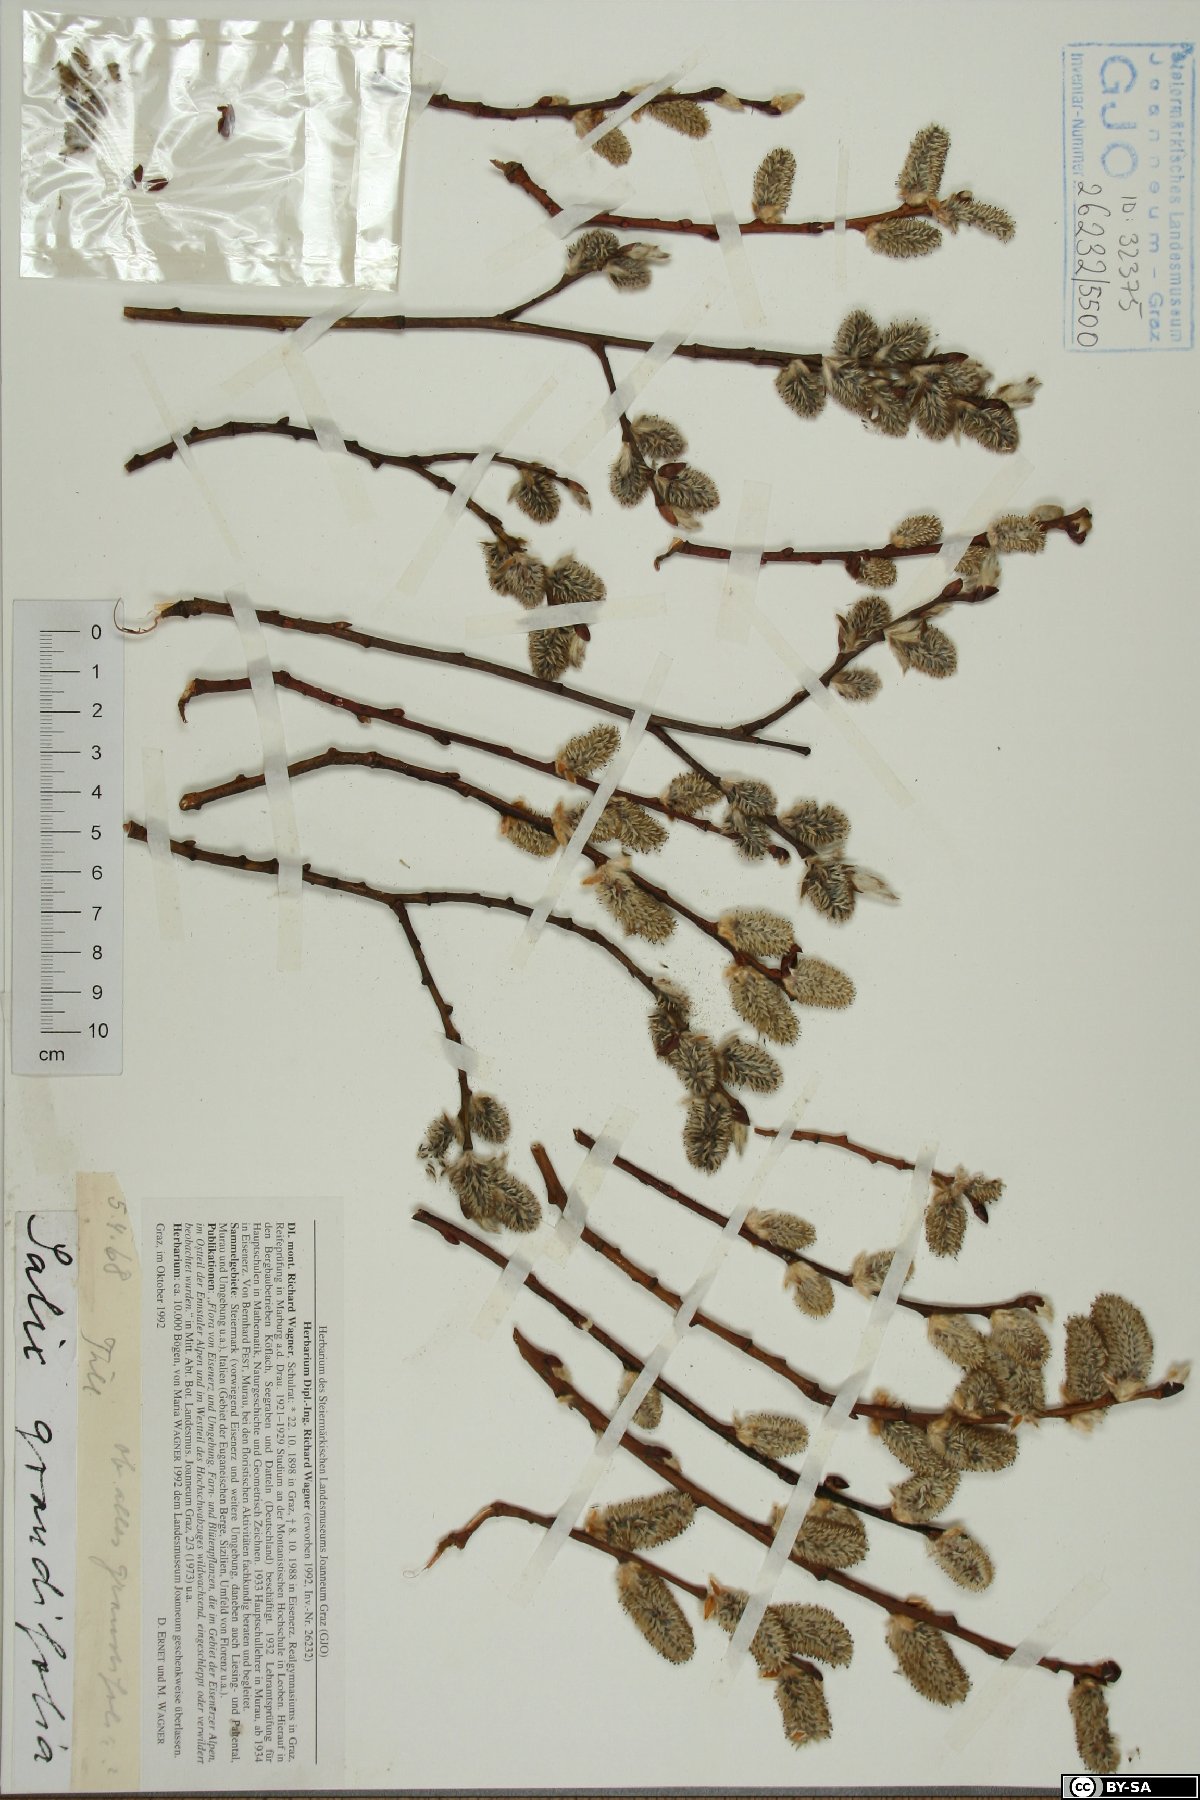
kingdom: Plantae
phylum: Tracheophyta
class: Magnoliopsida
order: Malpighiales
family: Salicaceae
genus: Salix
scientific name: Salix appendiculata
